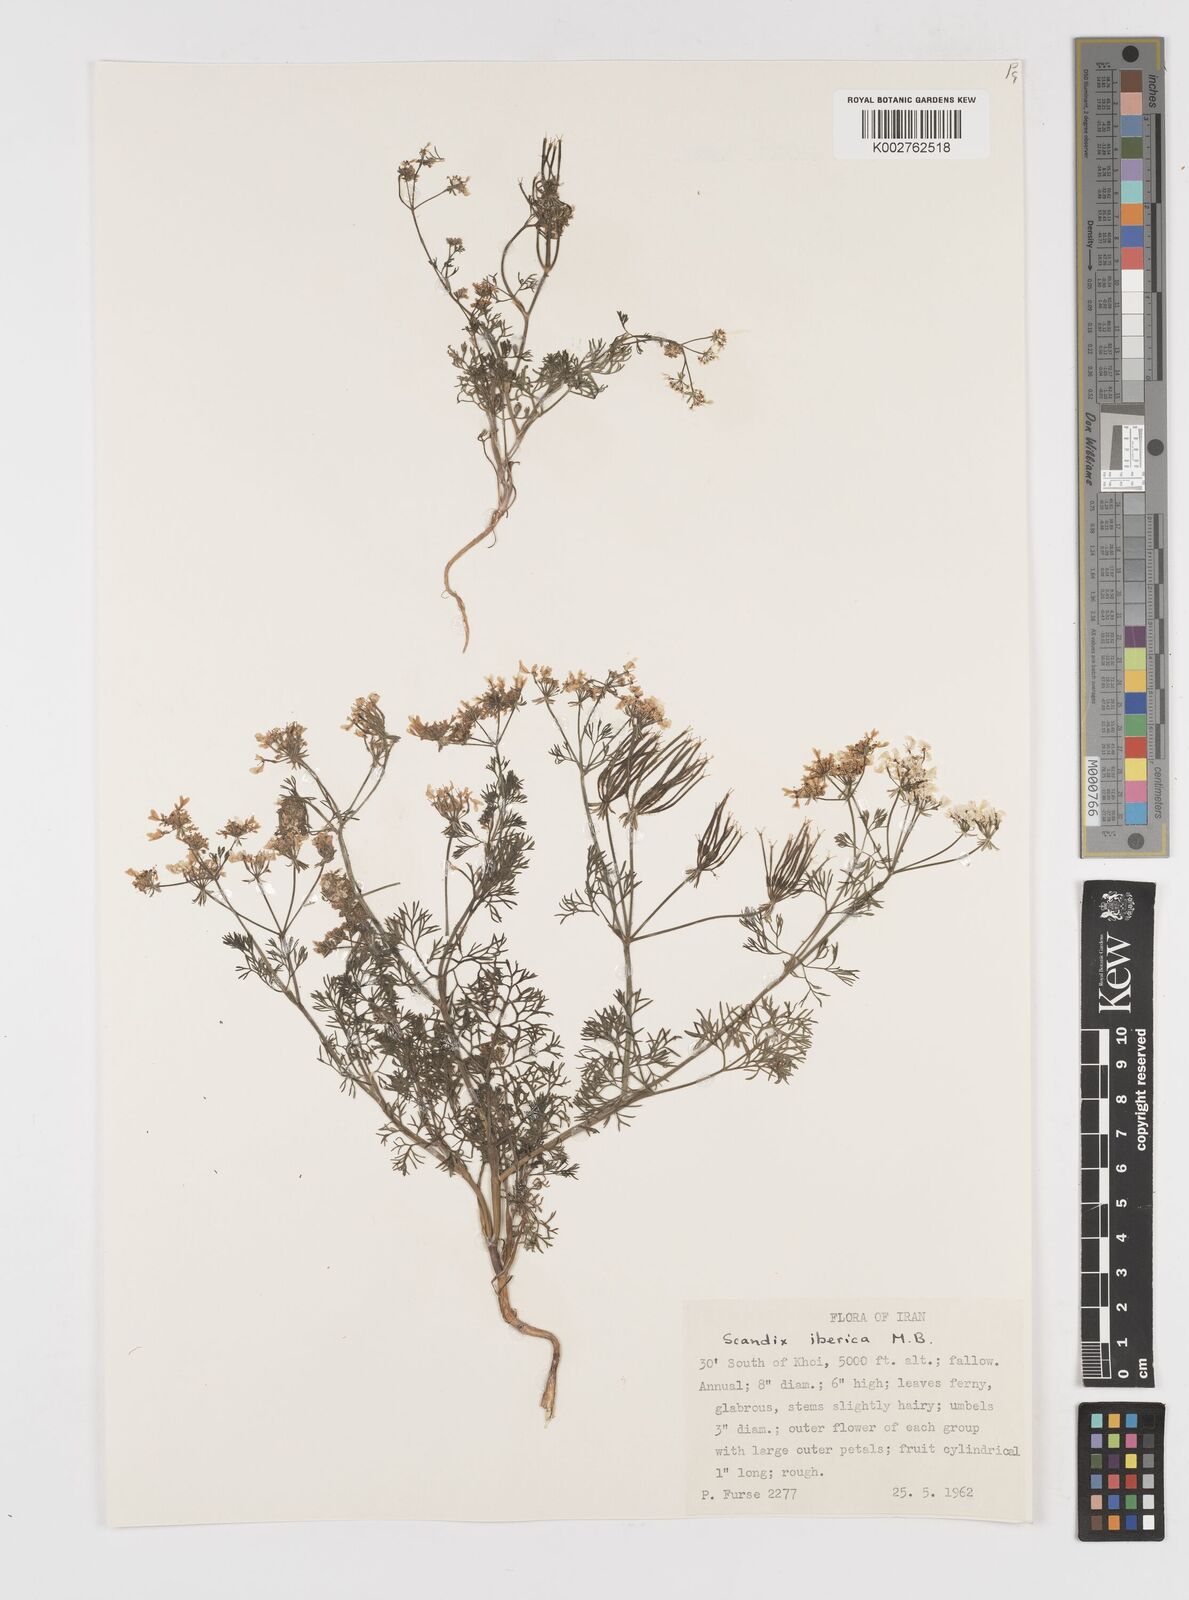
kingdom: Plantae
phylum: Tracheophyta
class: Magnoliopsida
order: Apiales
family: Apiaceae
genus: Scandix
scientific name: Scandix iberica
